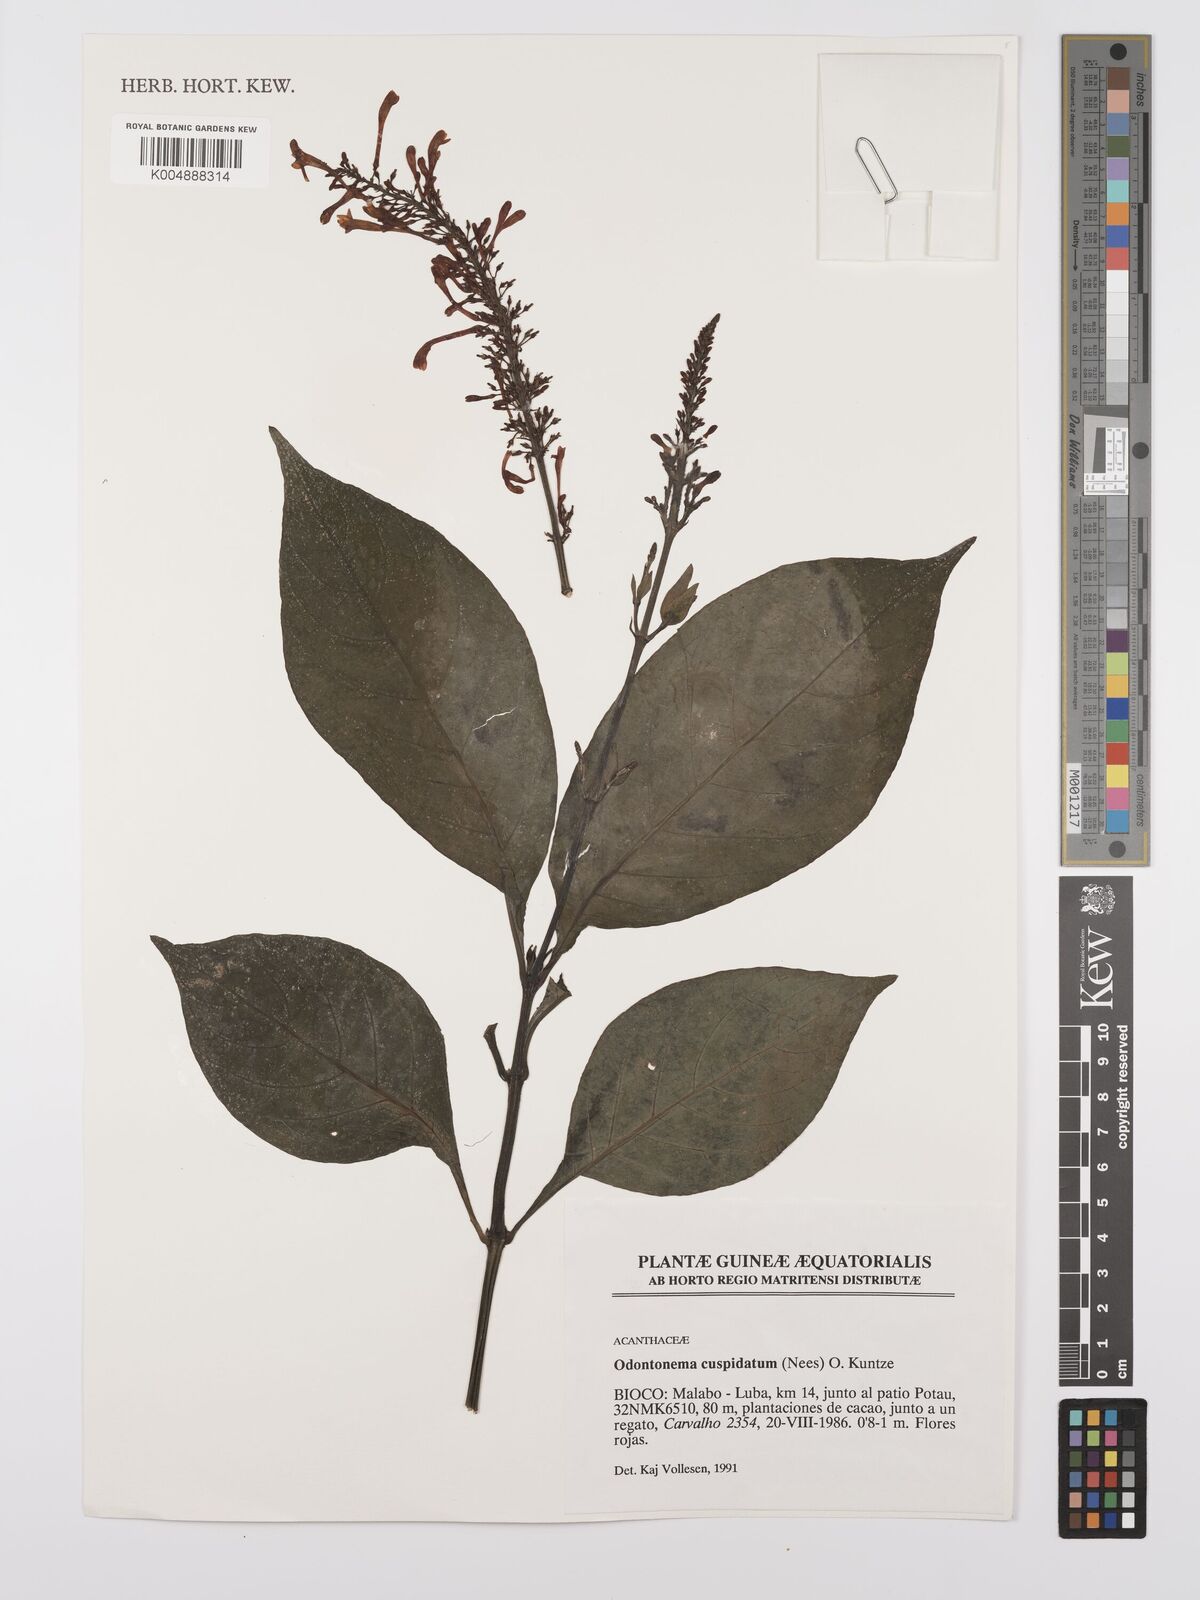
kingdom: Plantae
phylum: Tracheophyta
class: Magnoliopsida
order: Lamiales
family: Acanthaceae
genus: Odontonema
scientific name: Odontonema cuspidatum
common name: Mottled toothedthread
